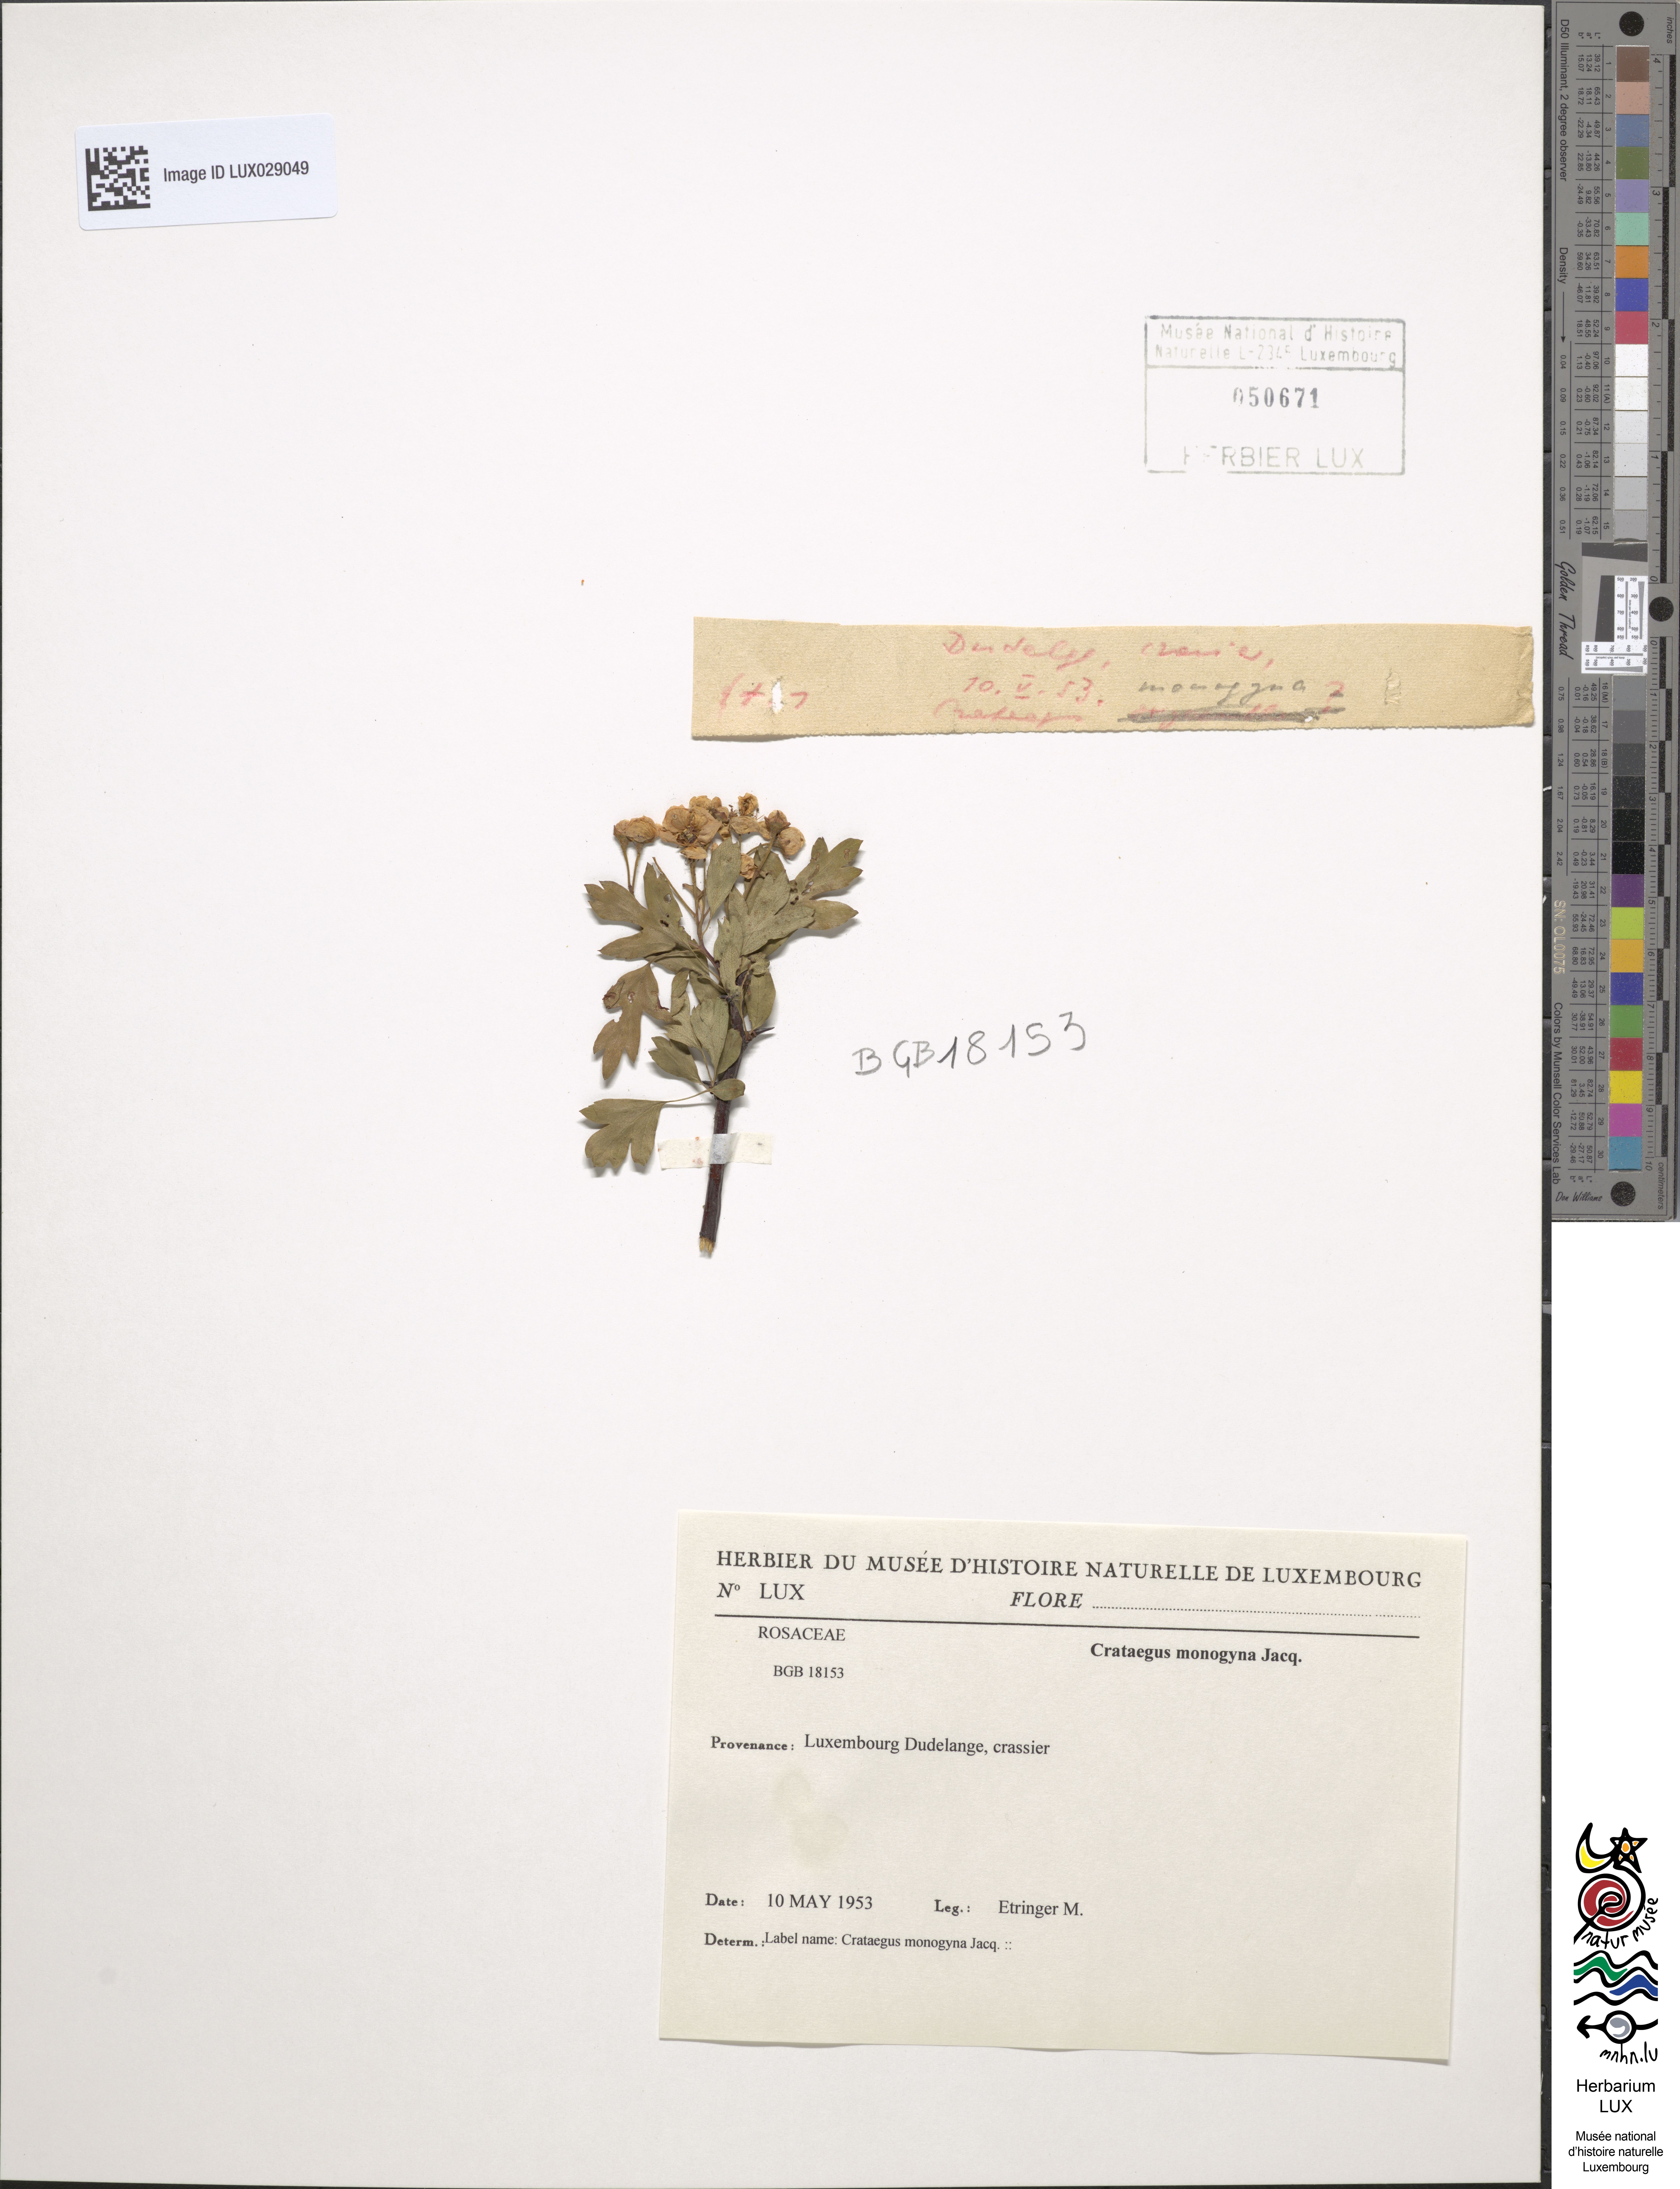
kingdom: Plantae
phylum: Tracheophyta
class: Magnoliopsida
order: Rosales
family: Rosaceae
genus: Crataegus
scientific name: Crataegus monogyna
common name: Hawthorn
